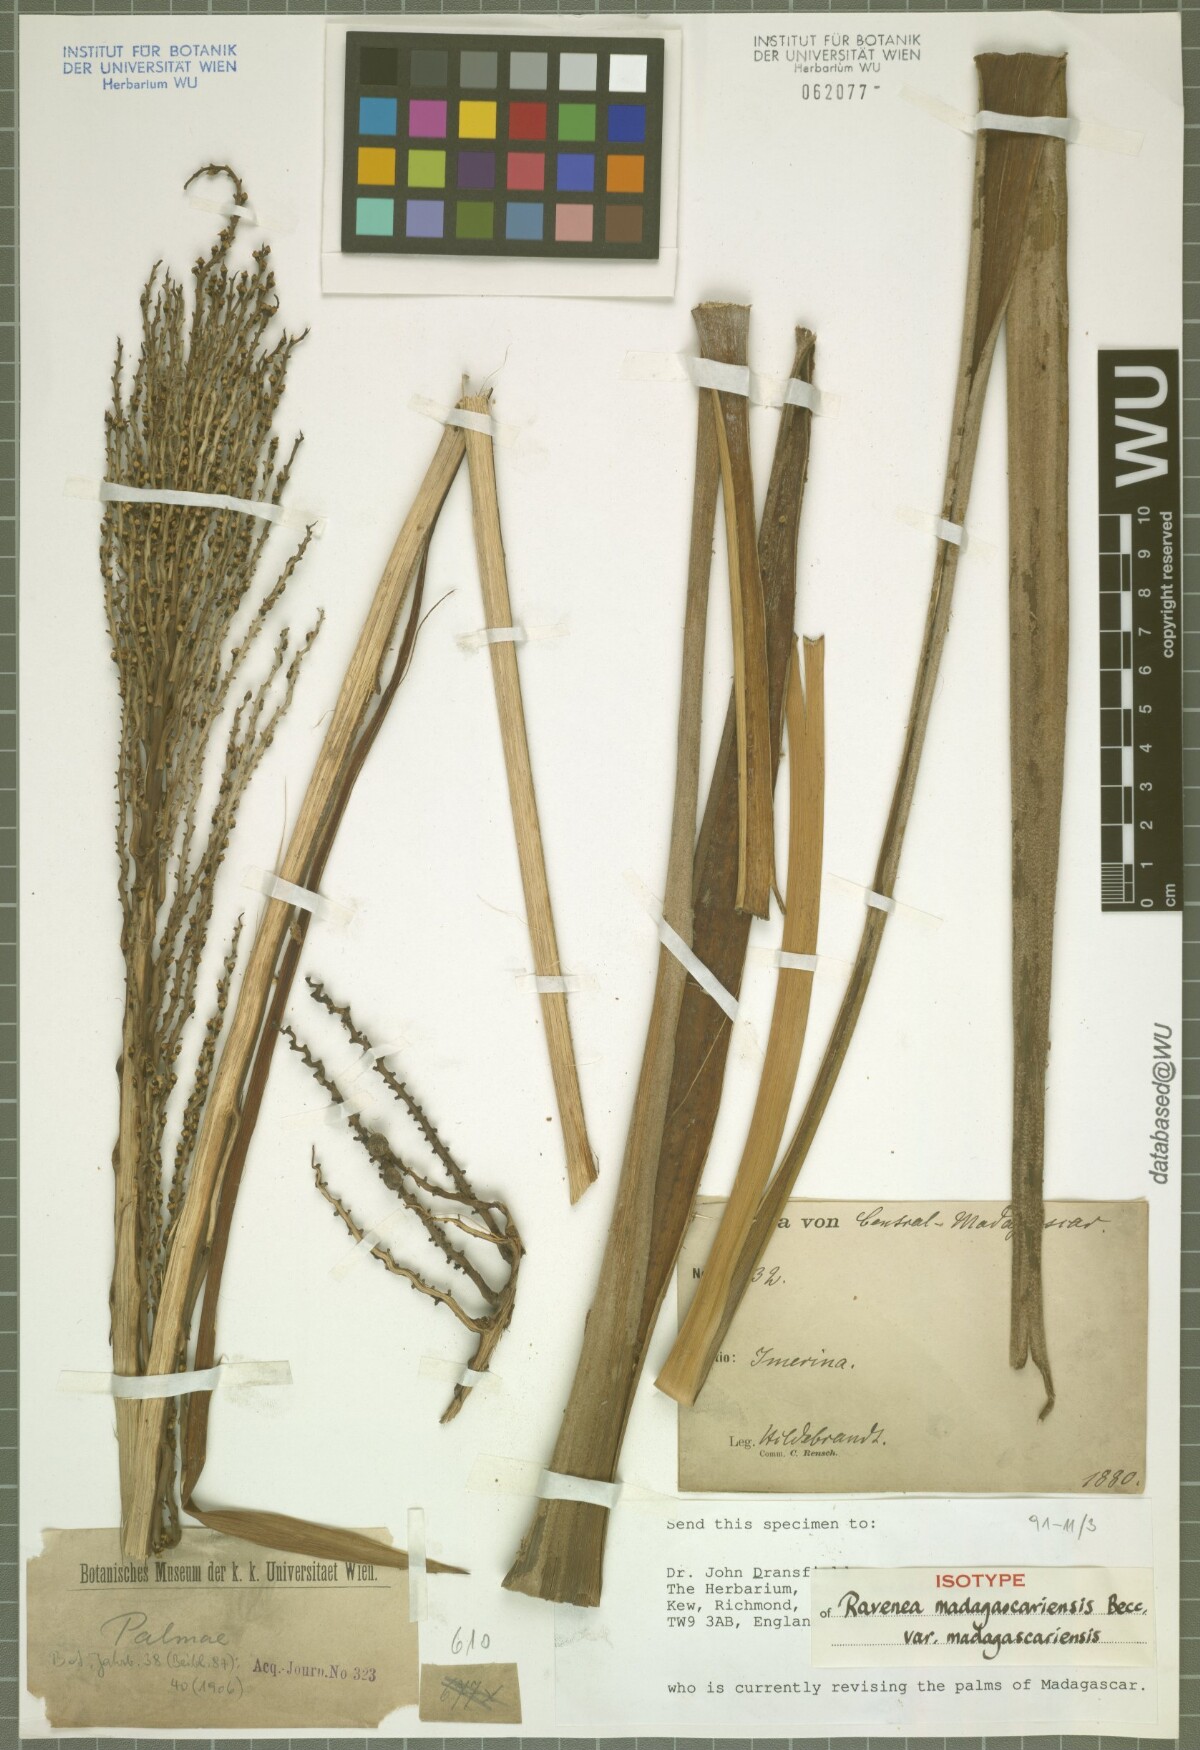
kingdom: Plantae
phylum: Tracheophyta
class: Liliopsida
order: Arecales
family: Arecaceae
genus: Ravenea
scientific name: Ravenea madagascariensis
